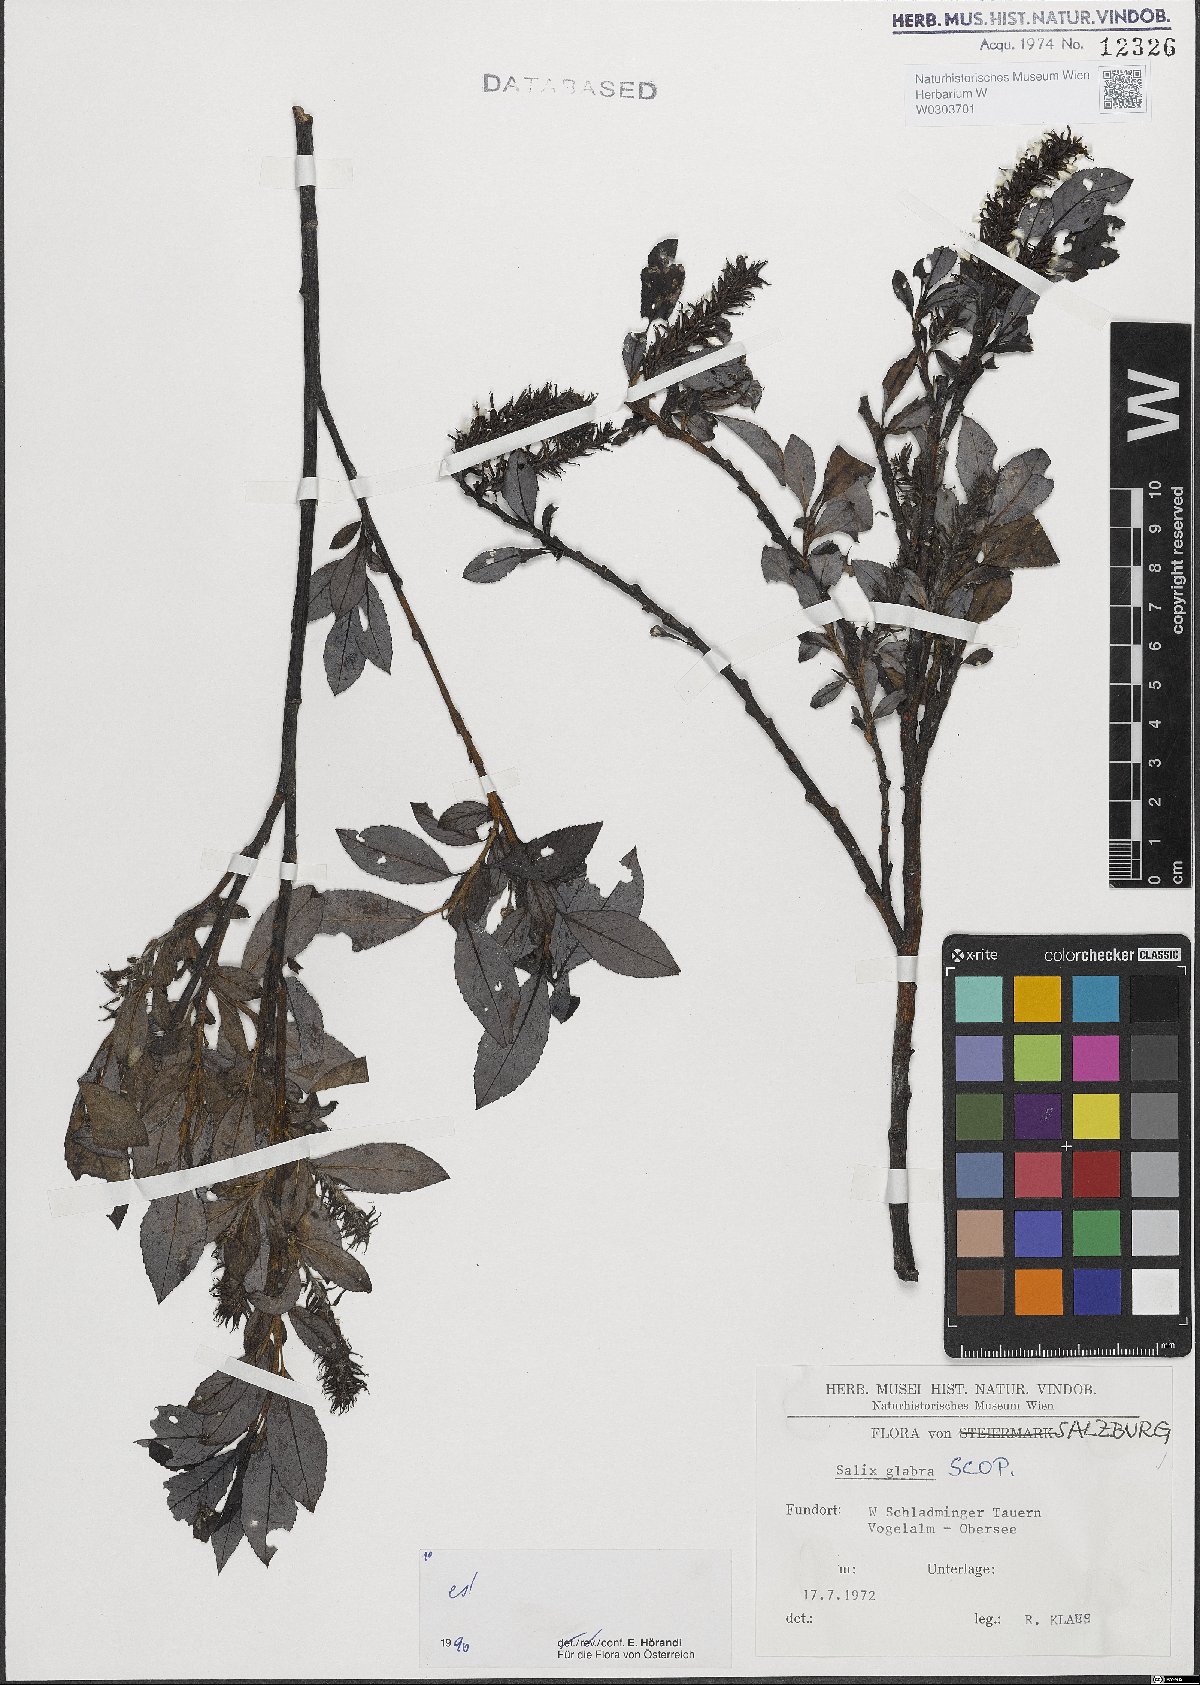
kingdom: Plantae
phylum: Tracheophyta
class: Magnoliopsida
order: Malpighiales
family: Salicaceae
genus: Salix
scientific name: Salix glabra
